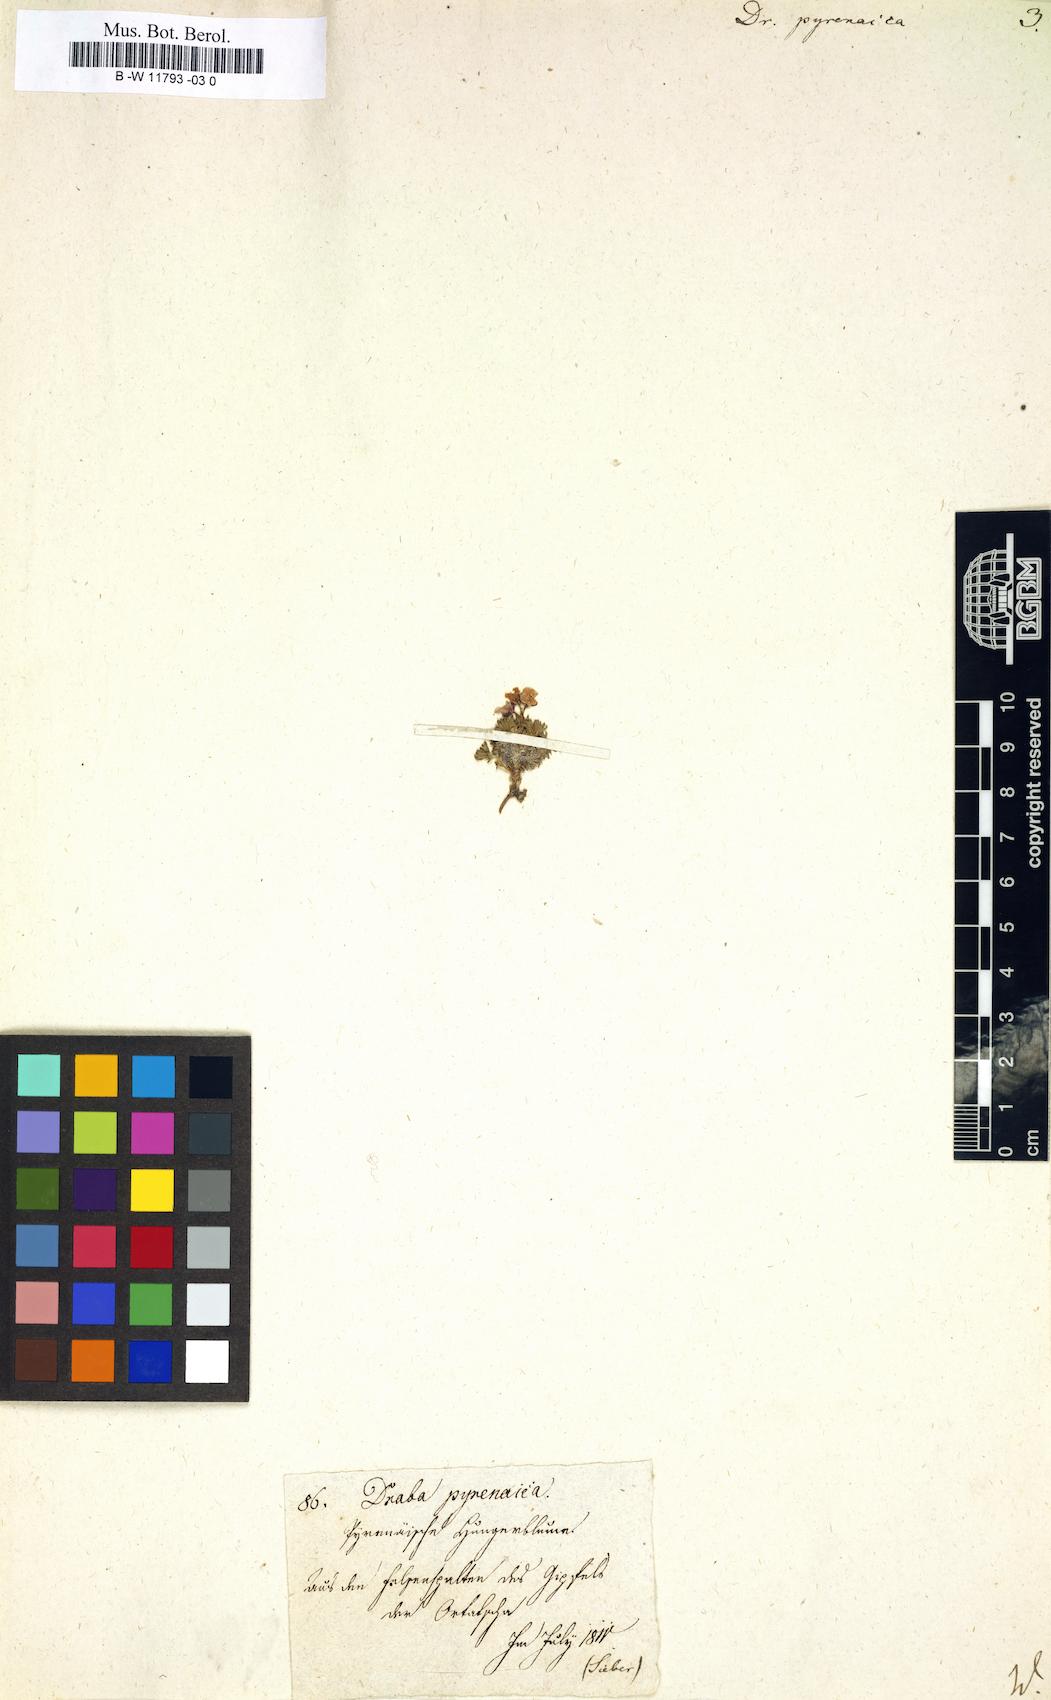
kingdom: Plantae
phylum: Tracheophyta
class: Magnoliopsida
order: Brassicales
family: Brassicaceae
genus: Draba
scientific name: Draba pyrenaica
